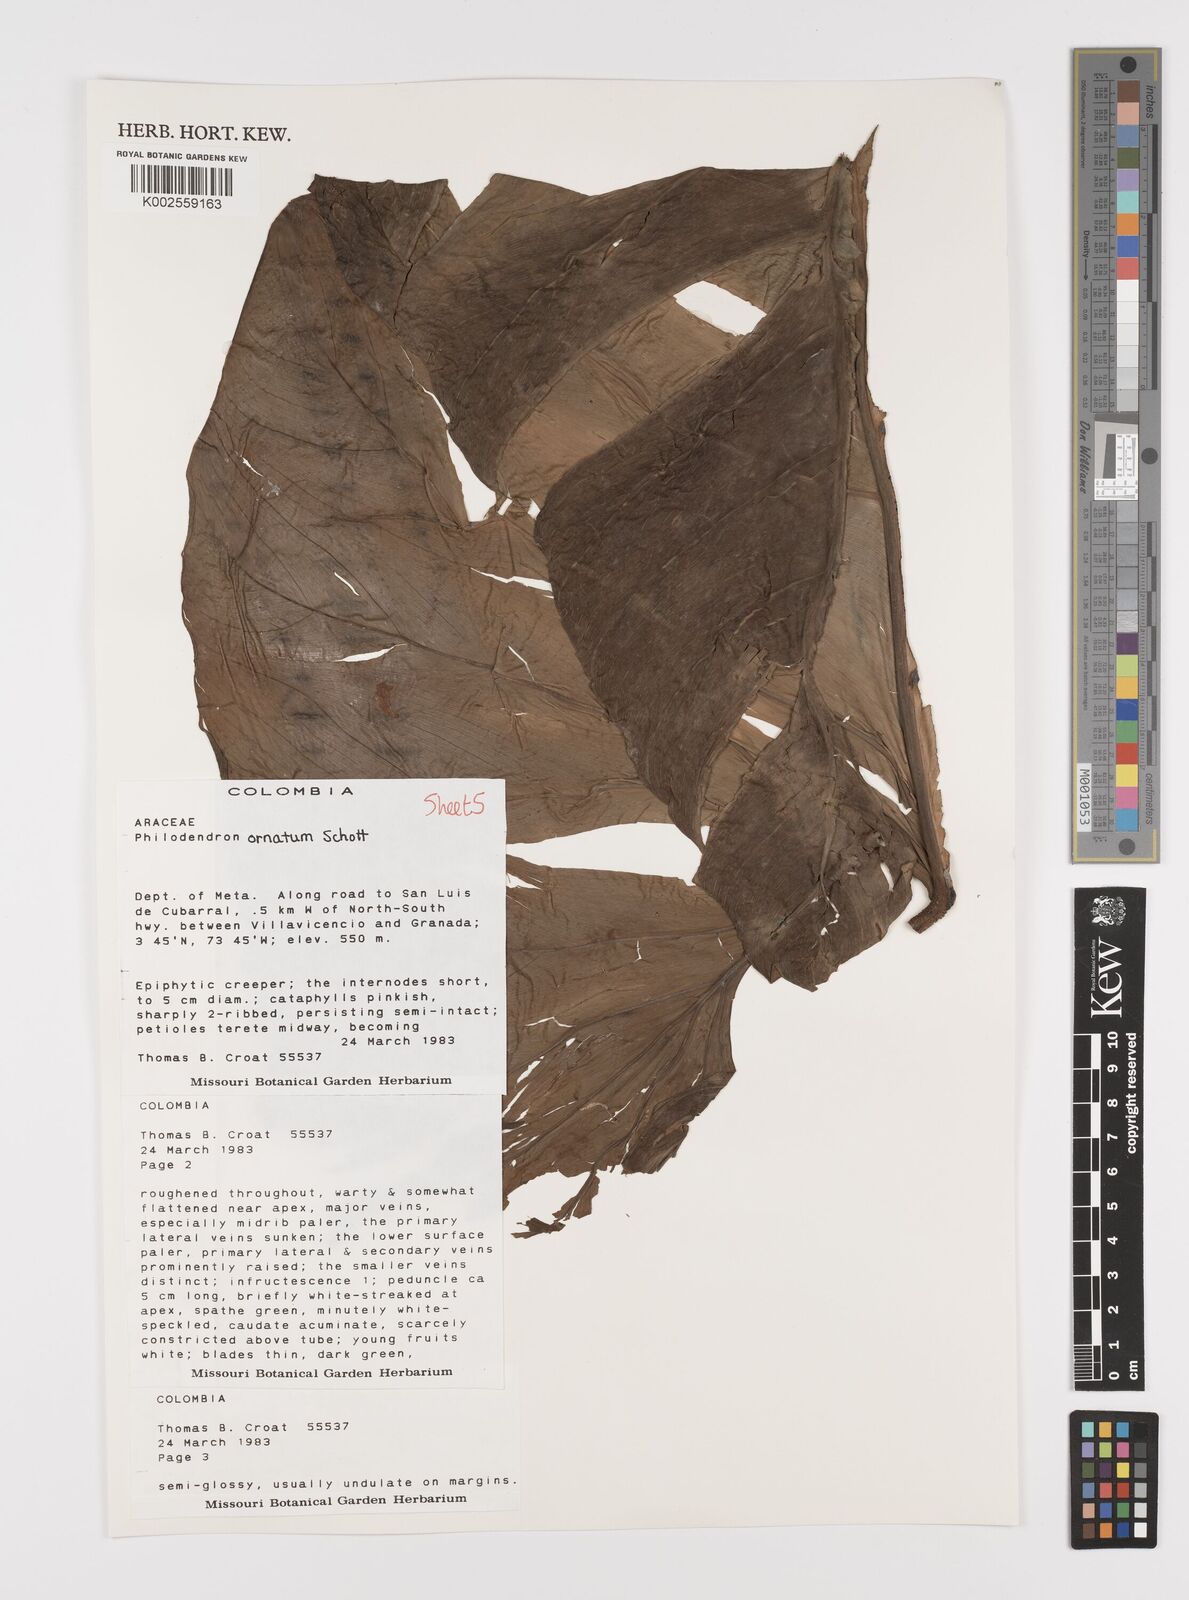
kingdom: Plantae
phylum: Tracheophyta
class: Liliopsida
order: Alismatales
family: Araceae
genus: Philodendron
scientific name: Philodendron ornatum
